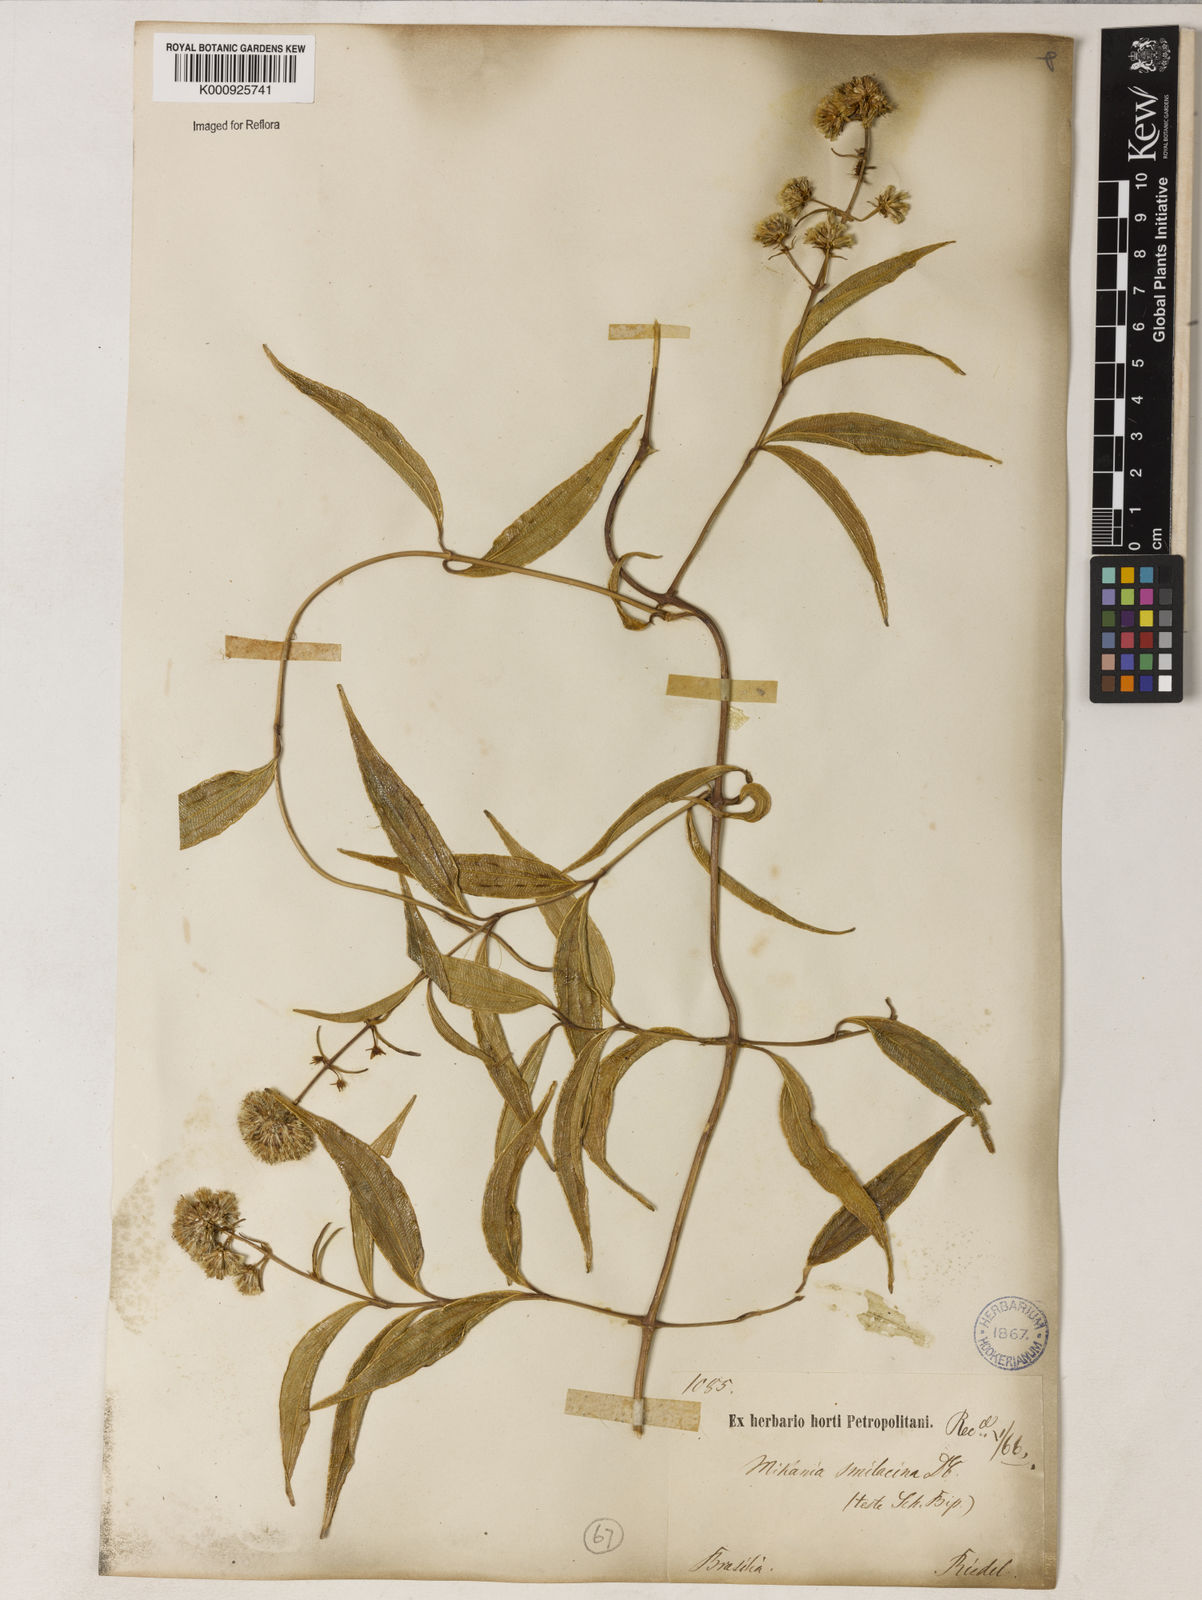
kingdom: Plantae
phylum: Tracheophyta
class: Magnoliopsida
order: Asterales
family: Asteraceae
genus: Mikania
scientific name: Mikania smilacina
